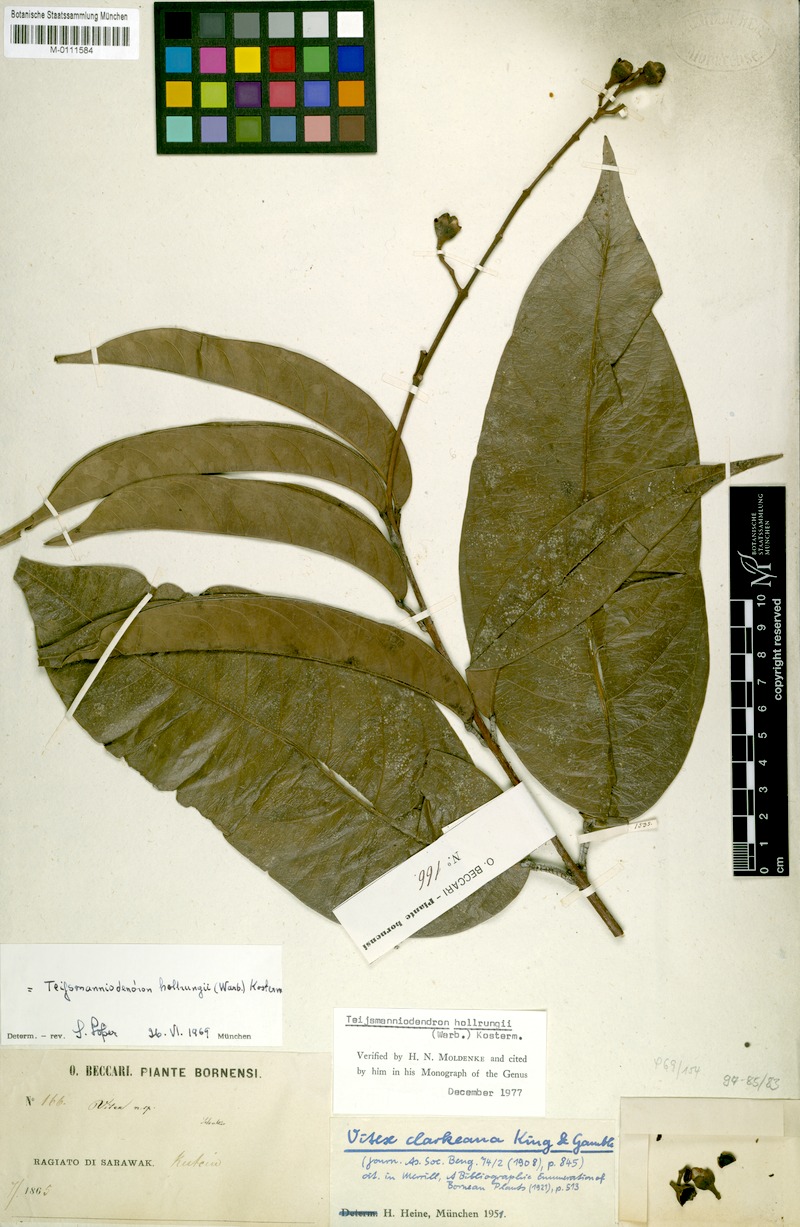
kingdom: Plantae
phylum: Tracheophyta
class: Magnoliopsida
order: Lamiales
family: Lamiaceae
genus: Teijsmanniodendron
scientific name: Teijsmanniodendron hollrungii
